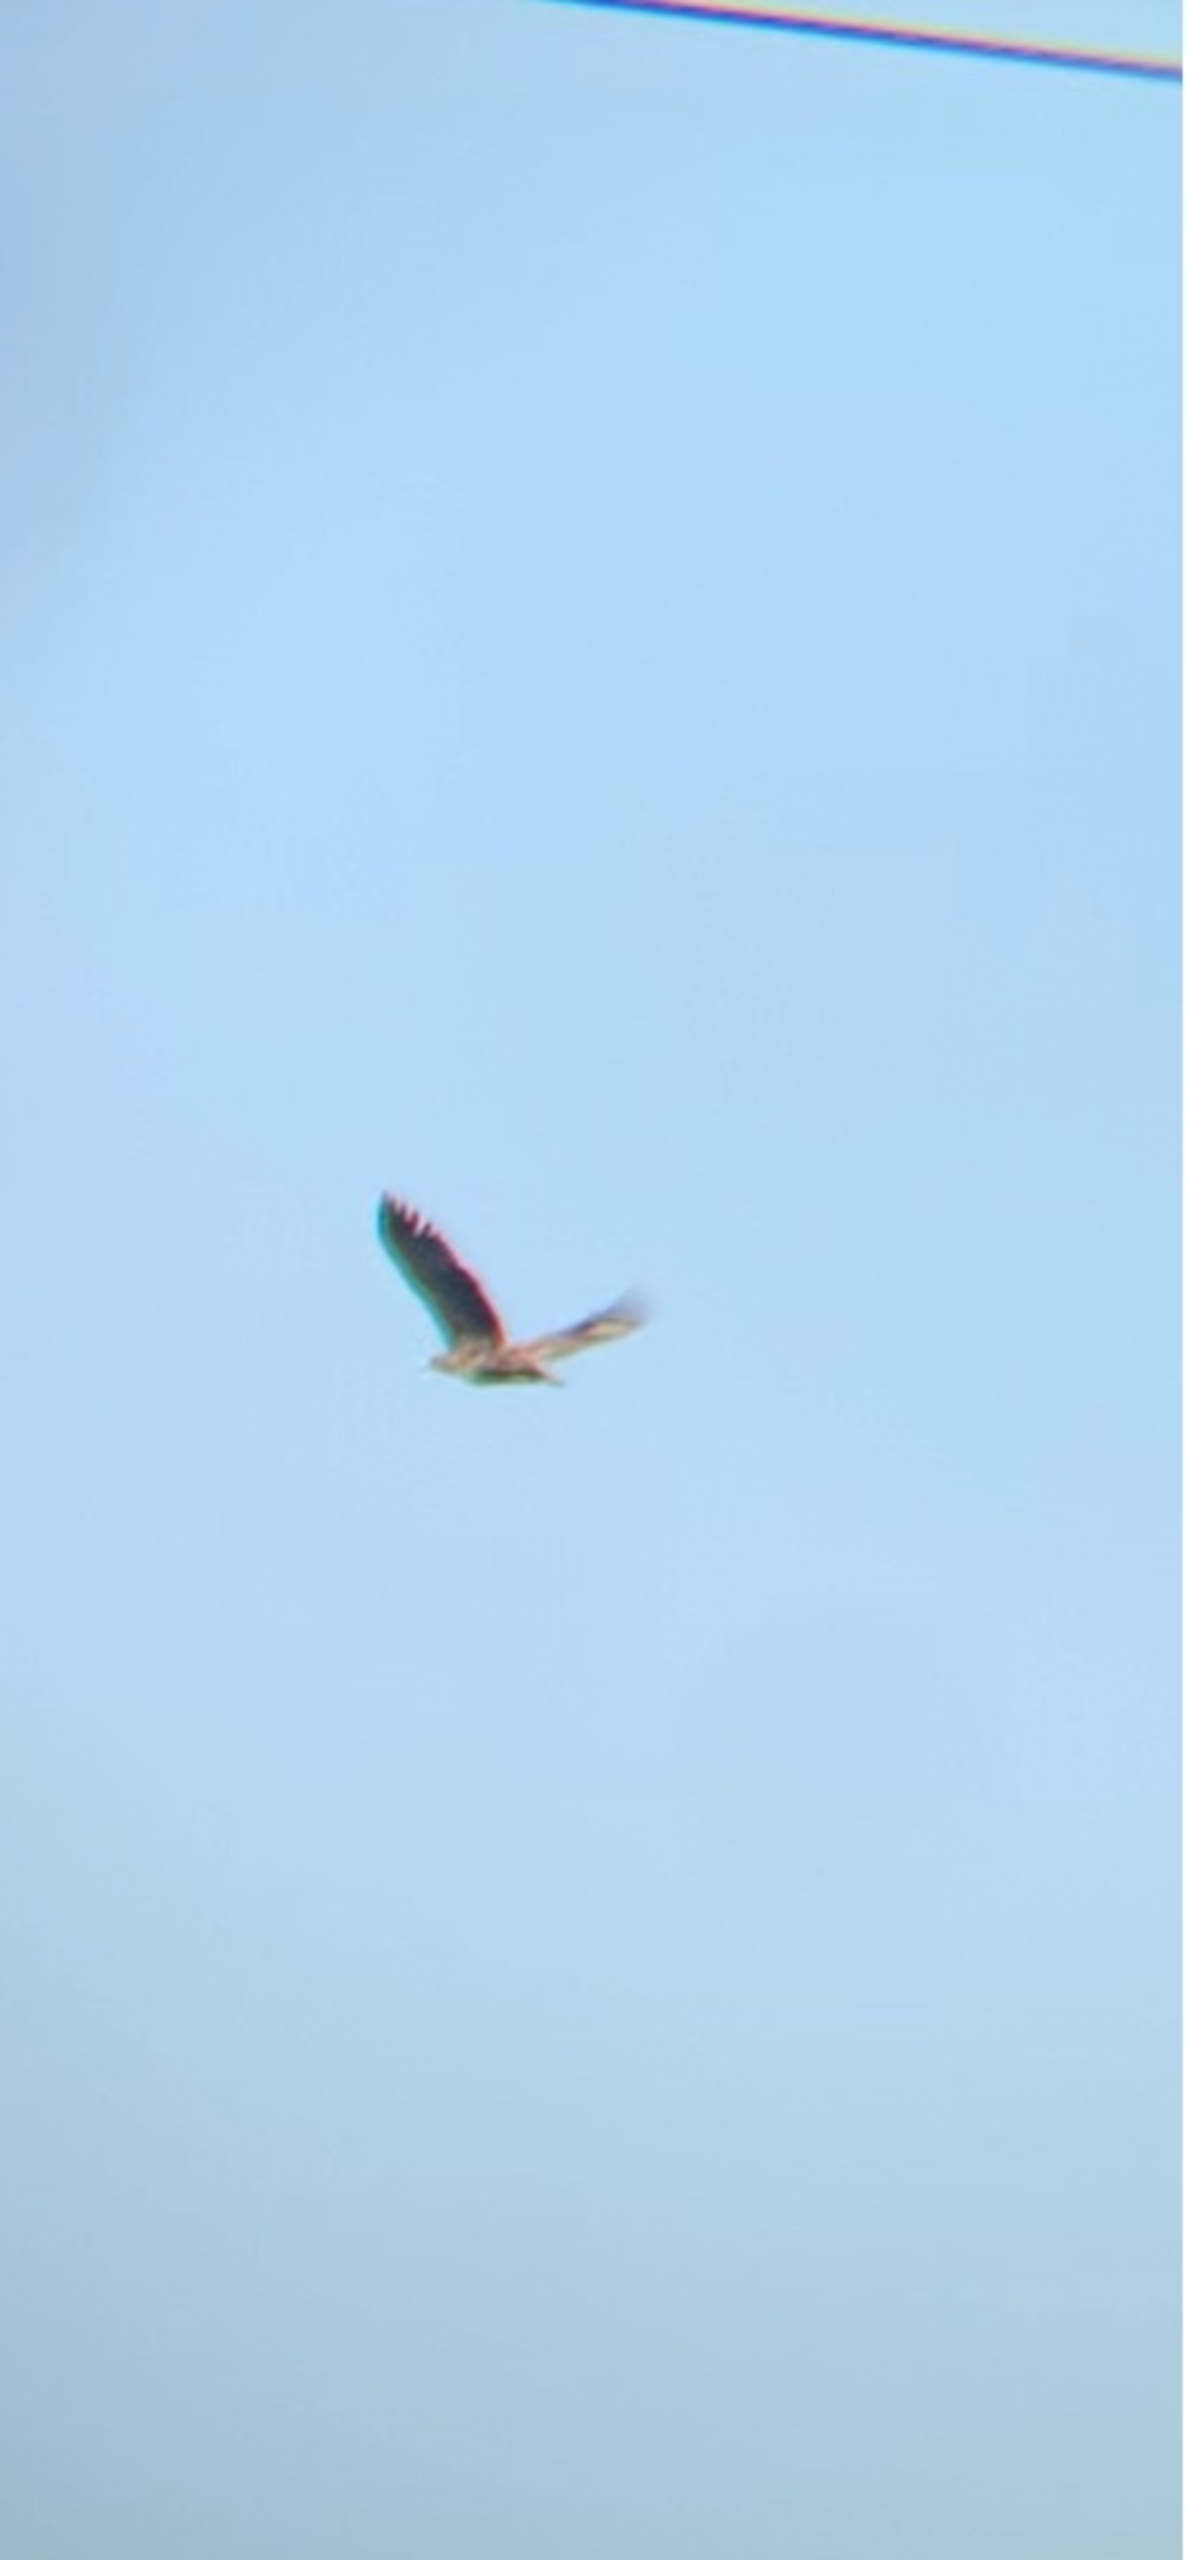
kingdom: Animalia
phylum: Chordata
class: Aves
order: Accipitriformes
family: Accipitridae
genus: Haliaeetus
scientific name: Haliaeetus albicilla
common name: Havørn
